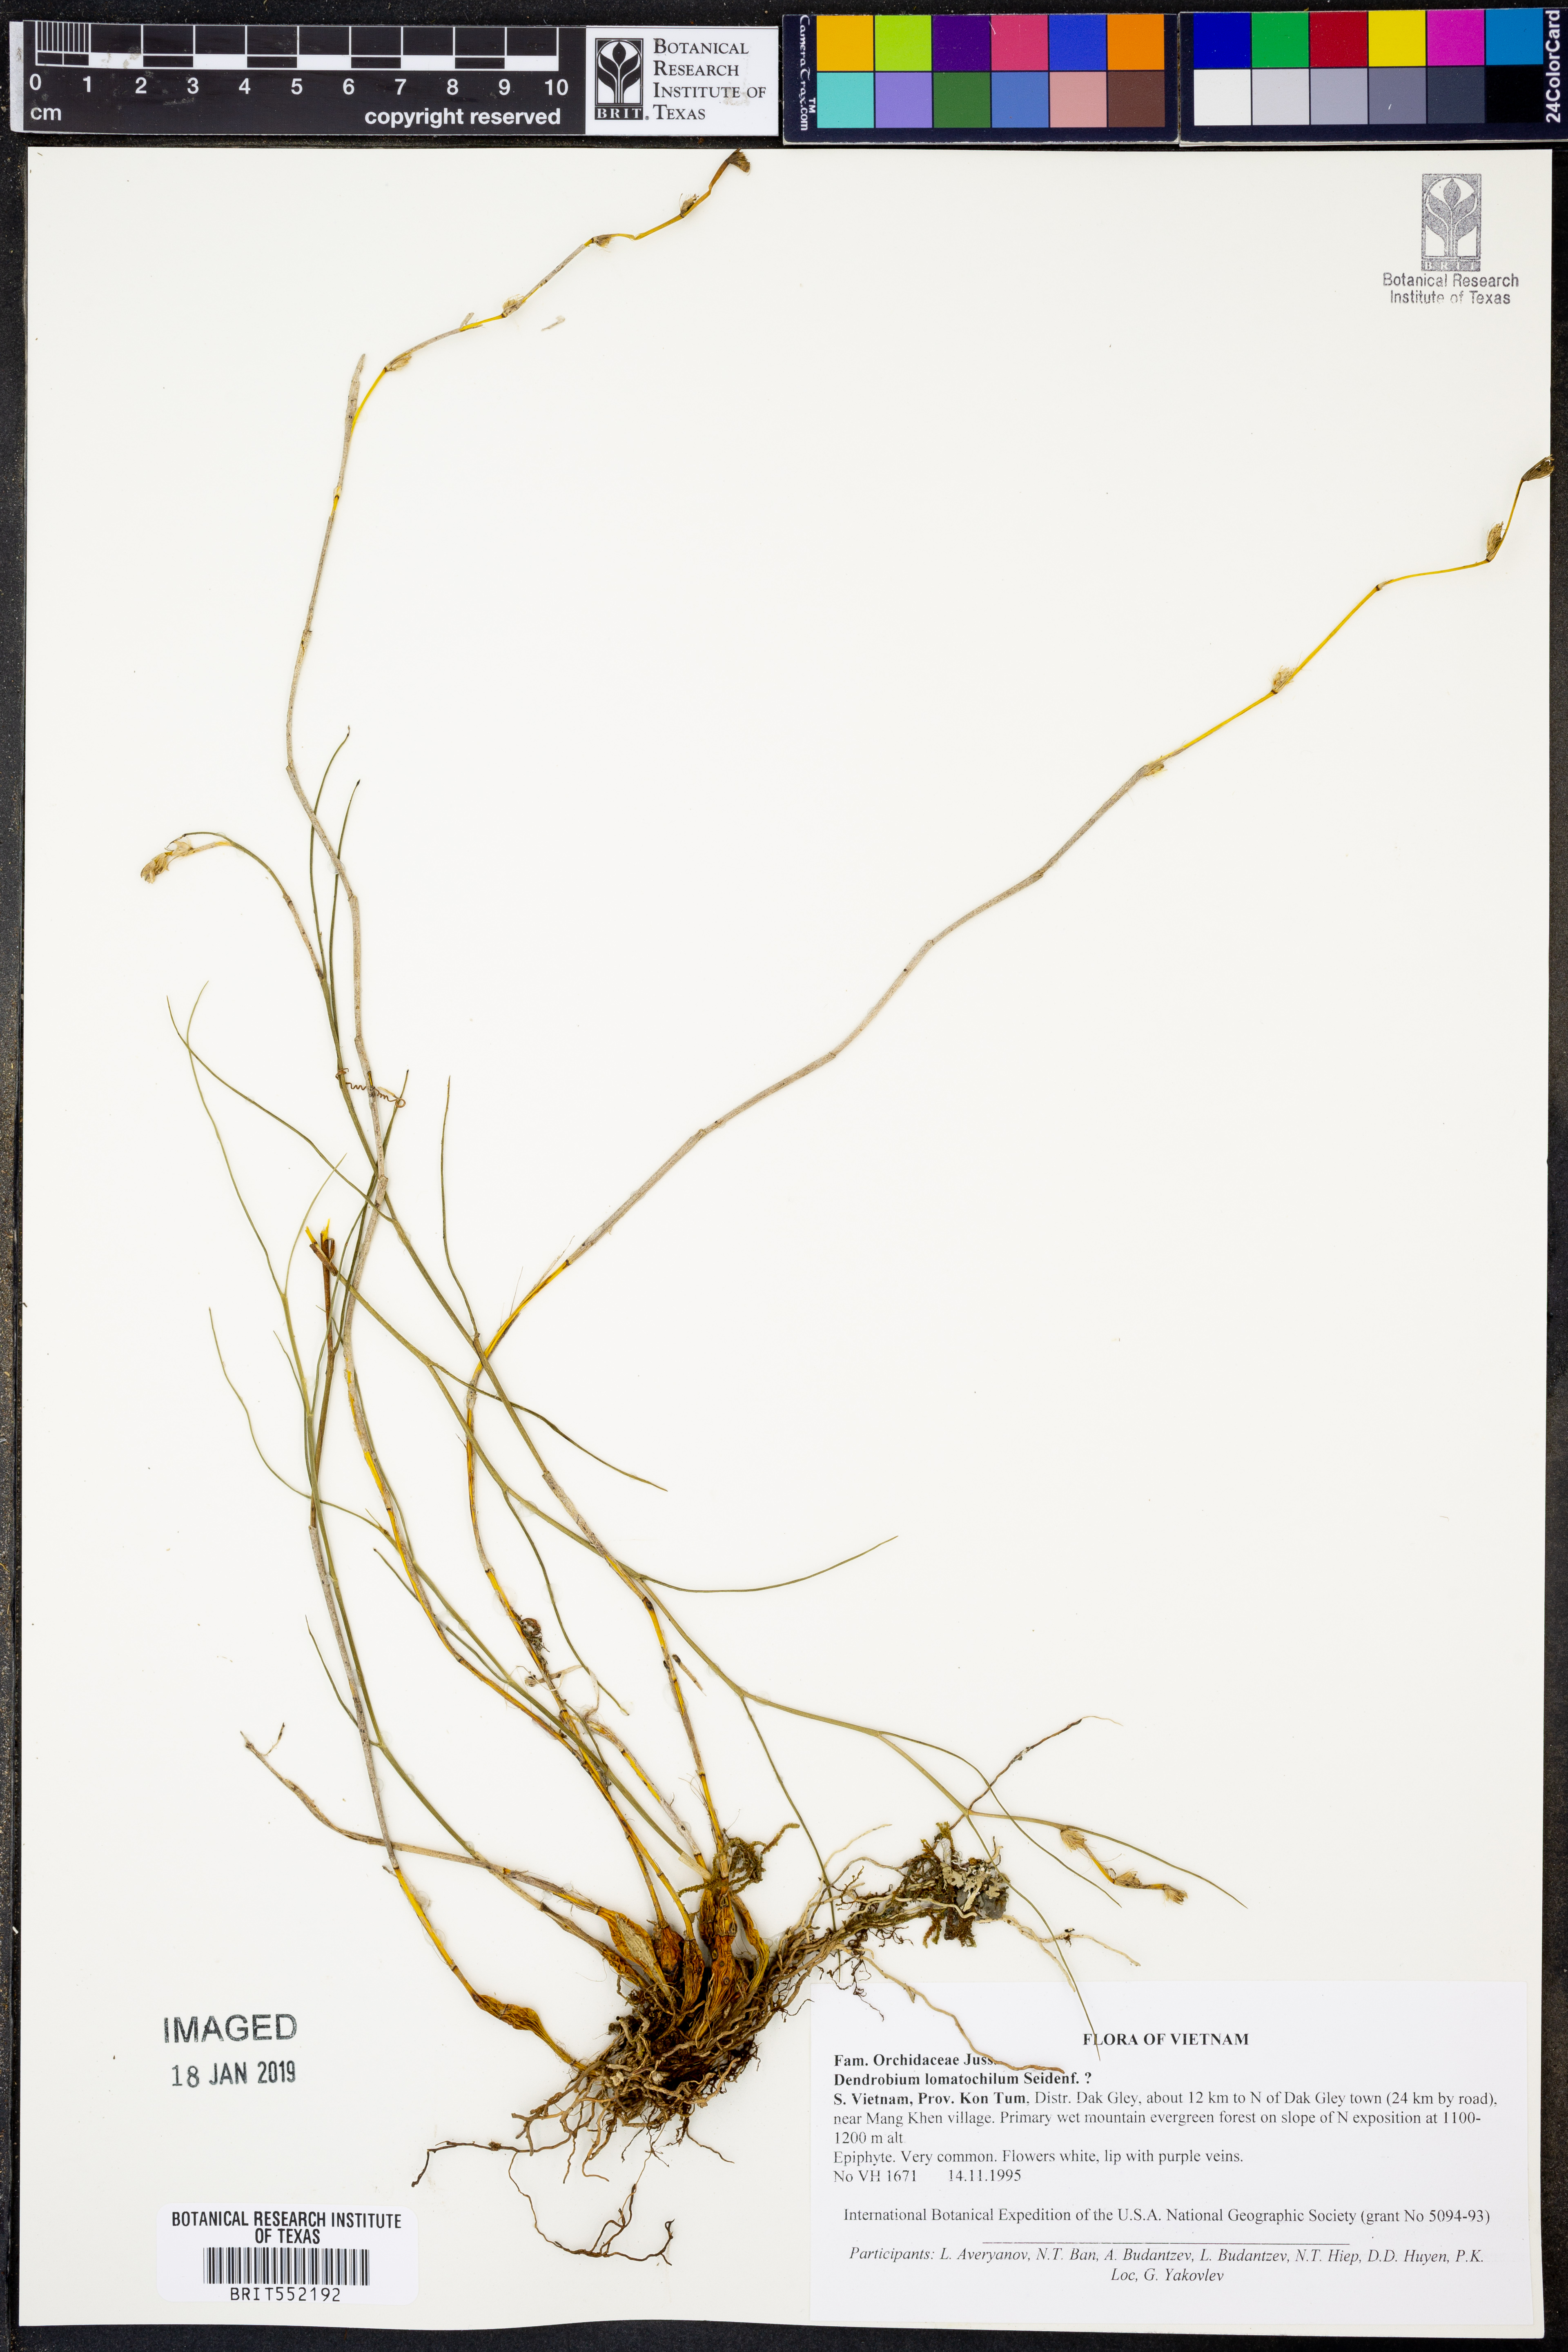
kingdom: Plantae
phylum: Tracheophyta
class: Liliopsida
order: Asparagales
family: Orchidaceae
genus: Dendrobium
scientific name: Dendrobium lomatochilum
